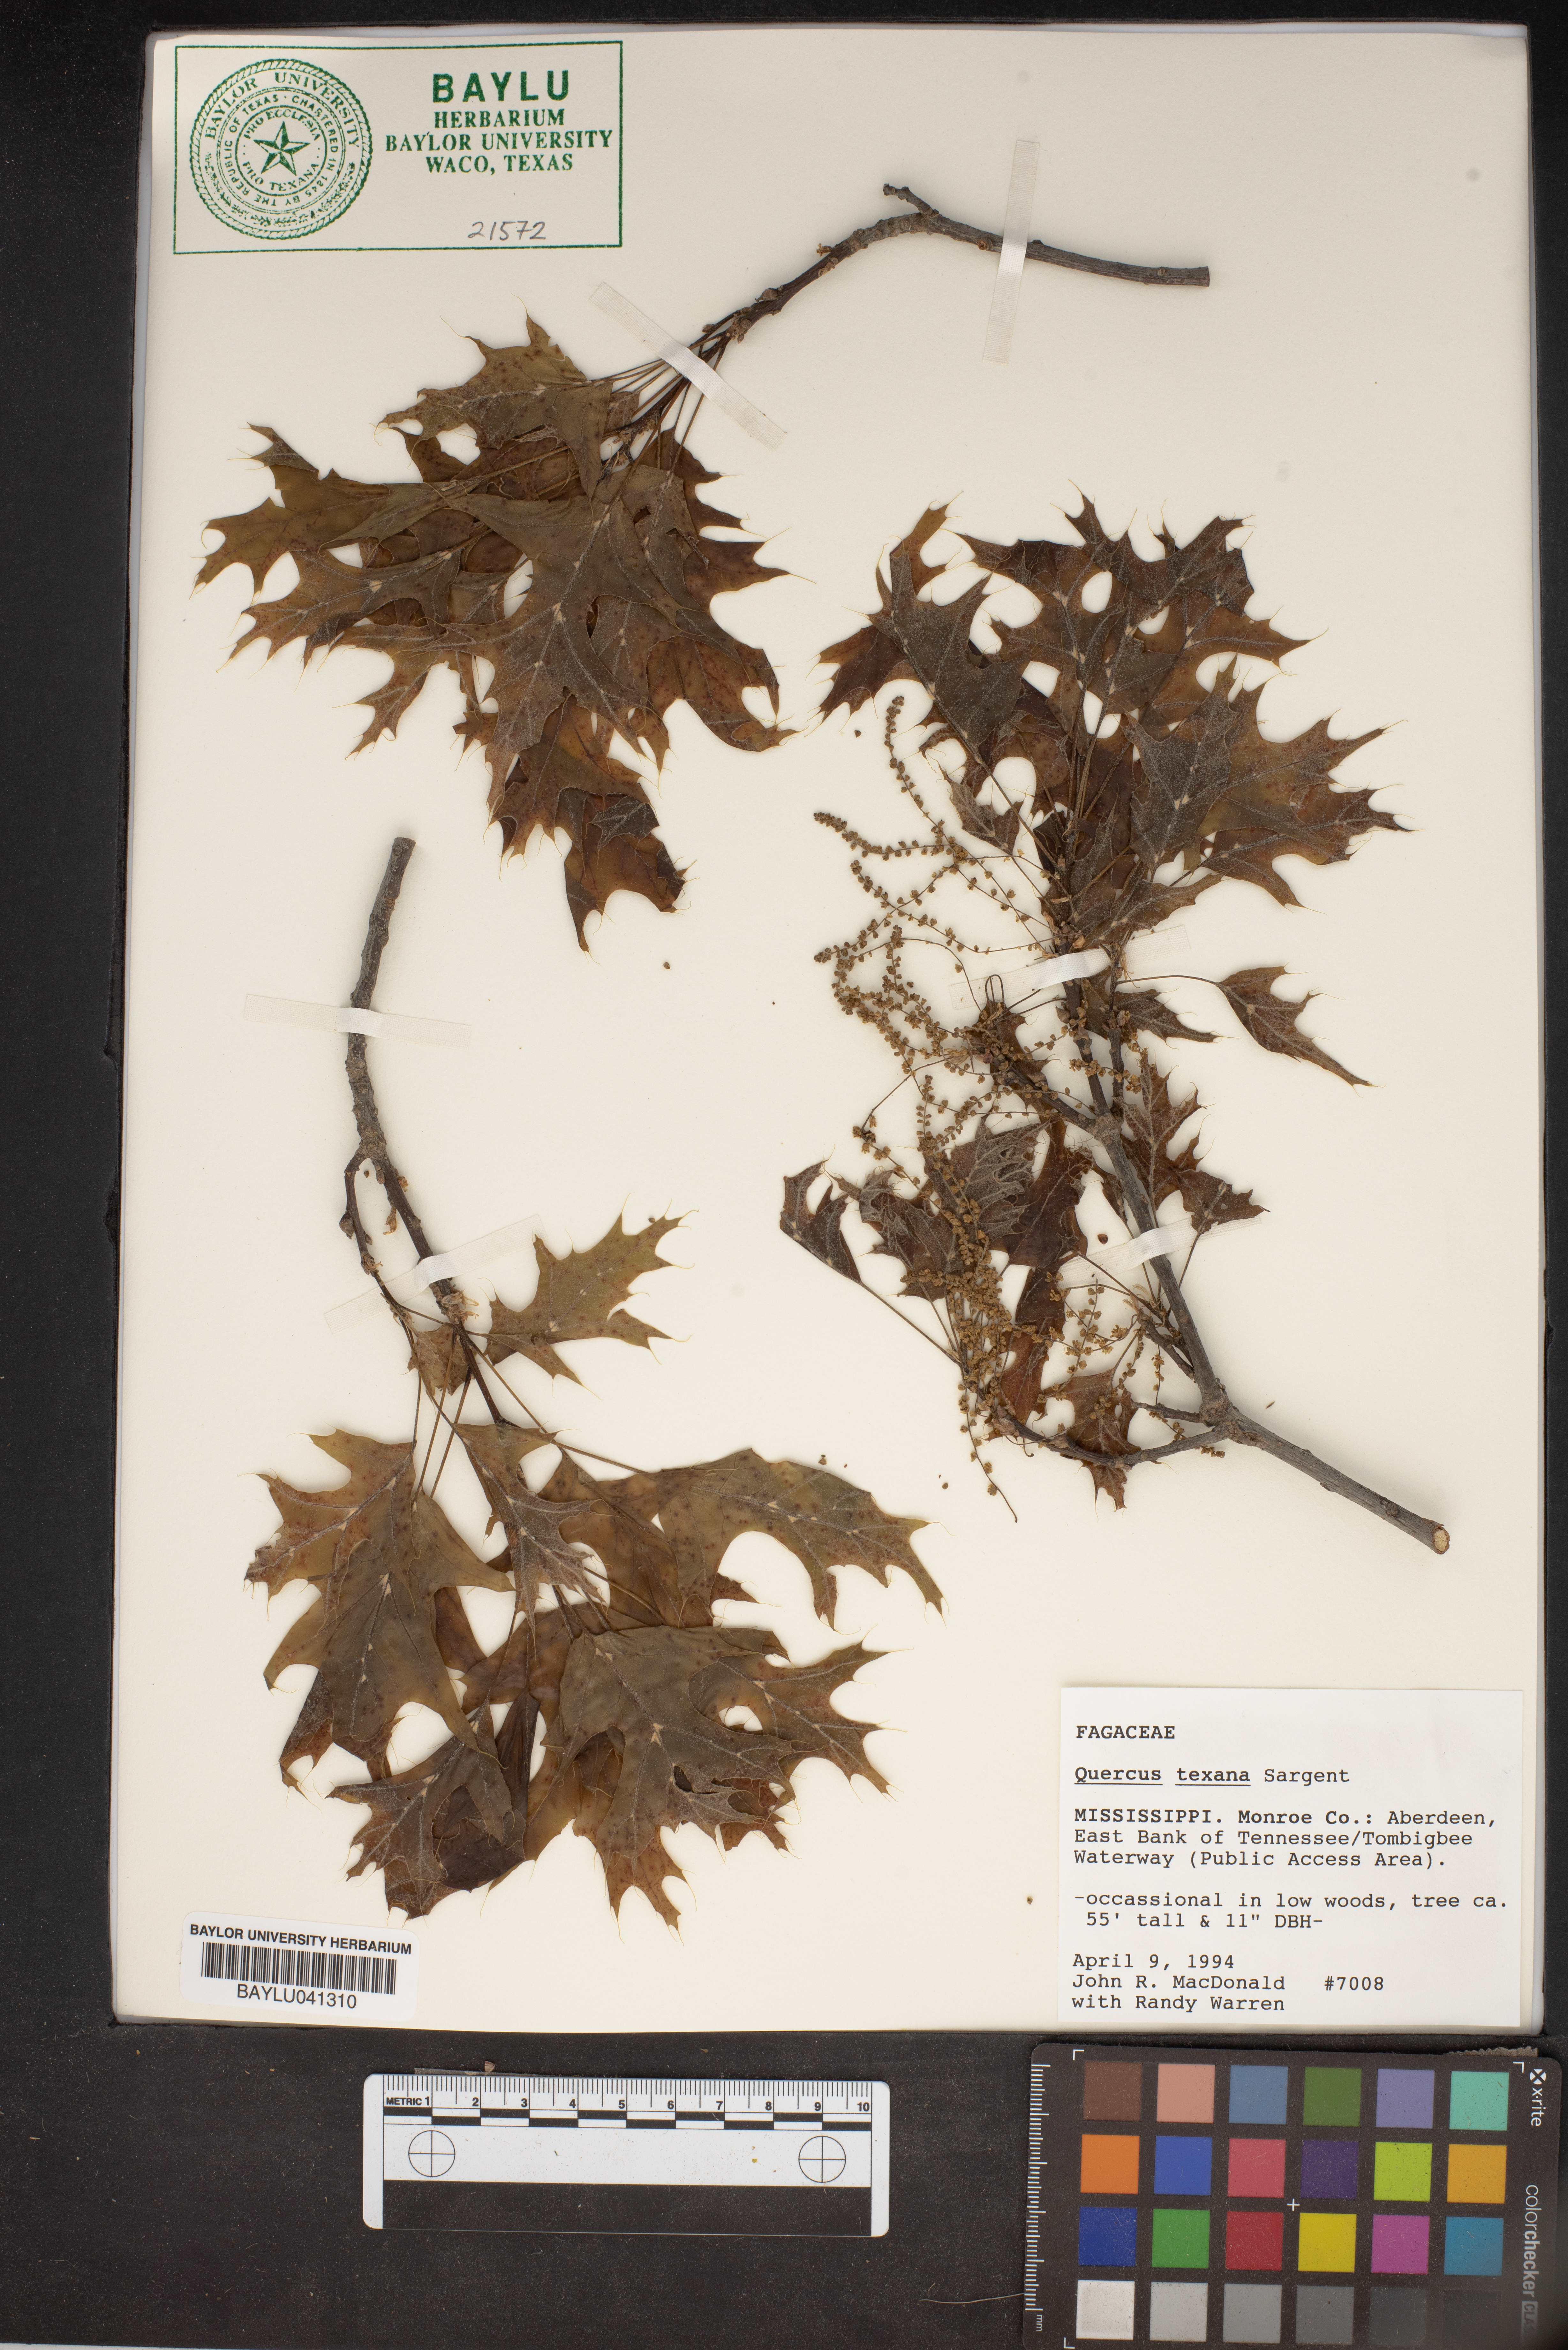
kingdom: Plantae
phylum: Tracheophyta
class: Magnoliopsida
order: Fagales
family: Fagaceae
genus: Quercus
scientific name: Quercus texana
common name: Nuttall oak
